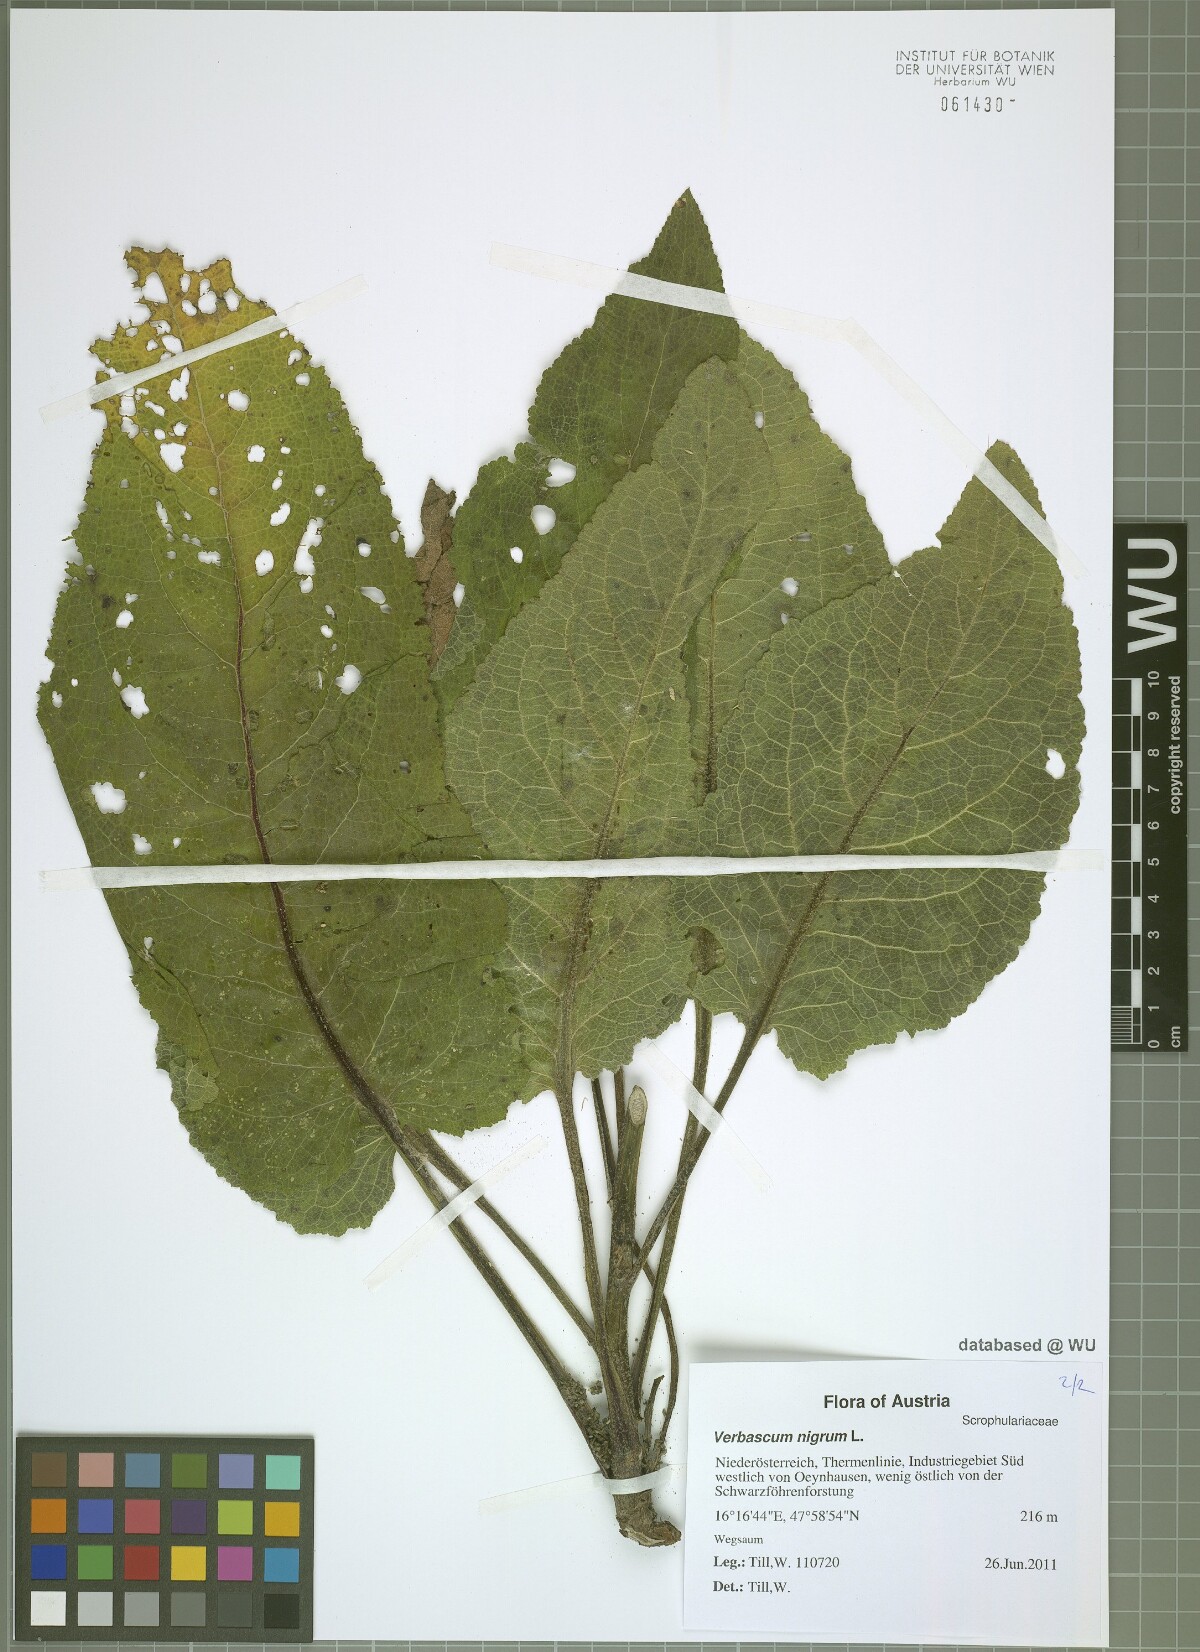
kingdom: Plantae
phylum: Tracheophyta
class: Magnoliopsida
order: Lamiales
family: Scrophulariaceae
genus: Verbascum
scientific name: Verbascum nigrum
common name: Dark mullein
